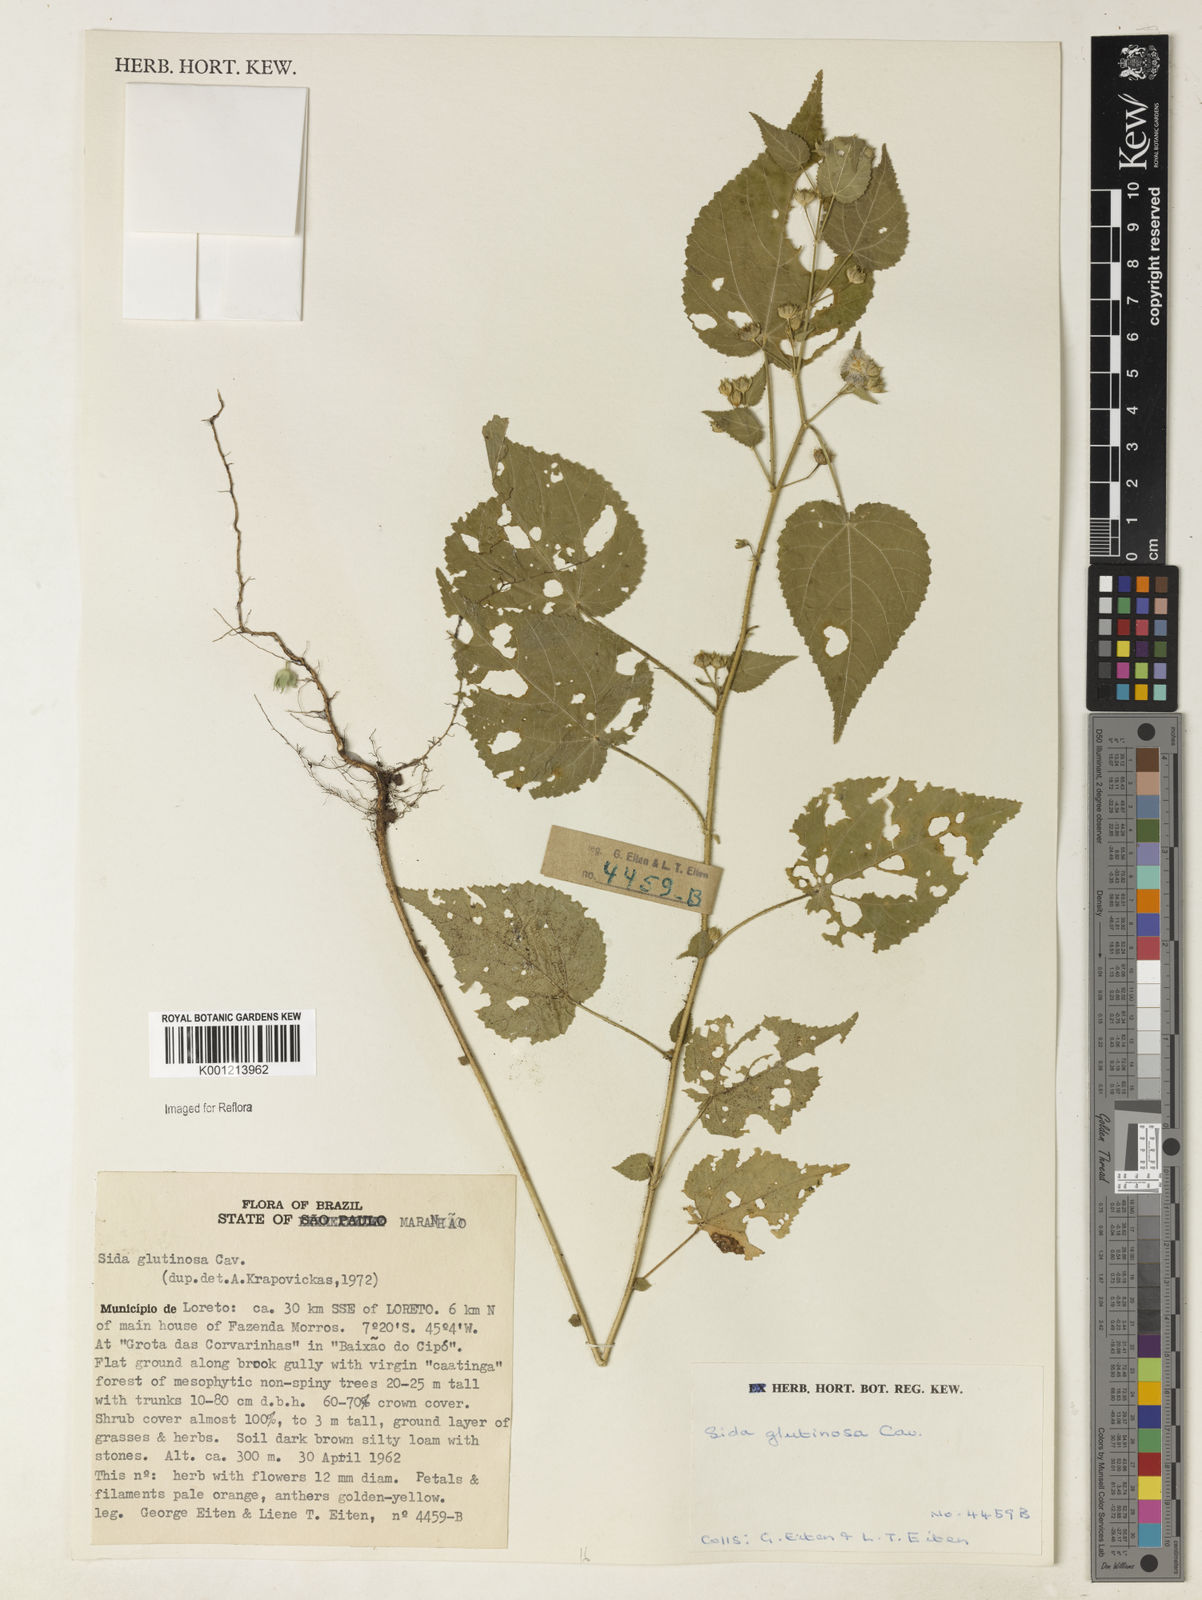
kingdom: Plantae
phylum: Tracheophyta
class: Magnoliopsida
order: Malvales
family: Malvaceae
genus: Sida
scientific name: Sida glutinosa
